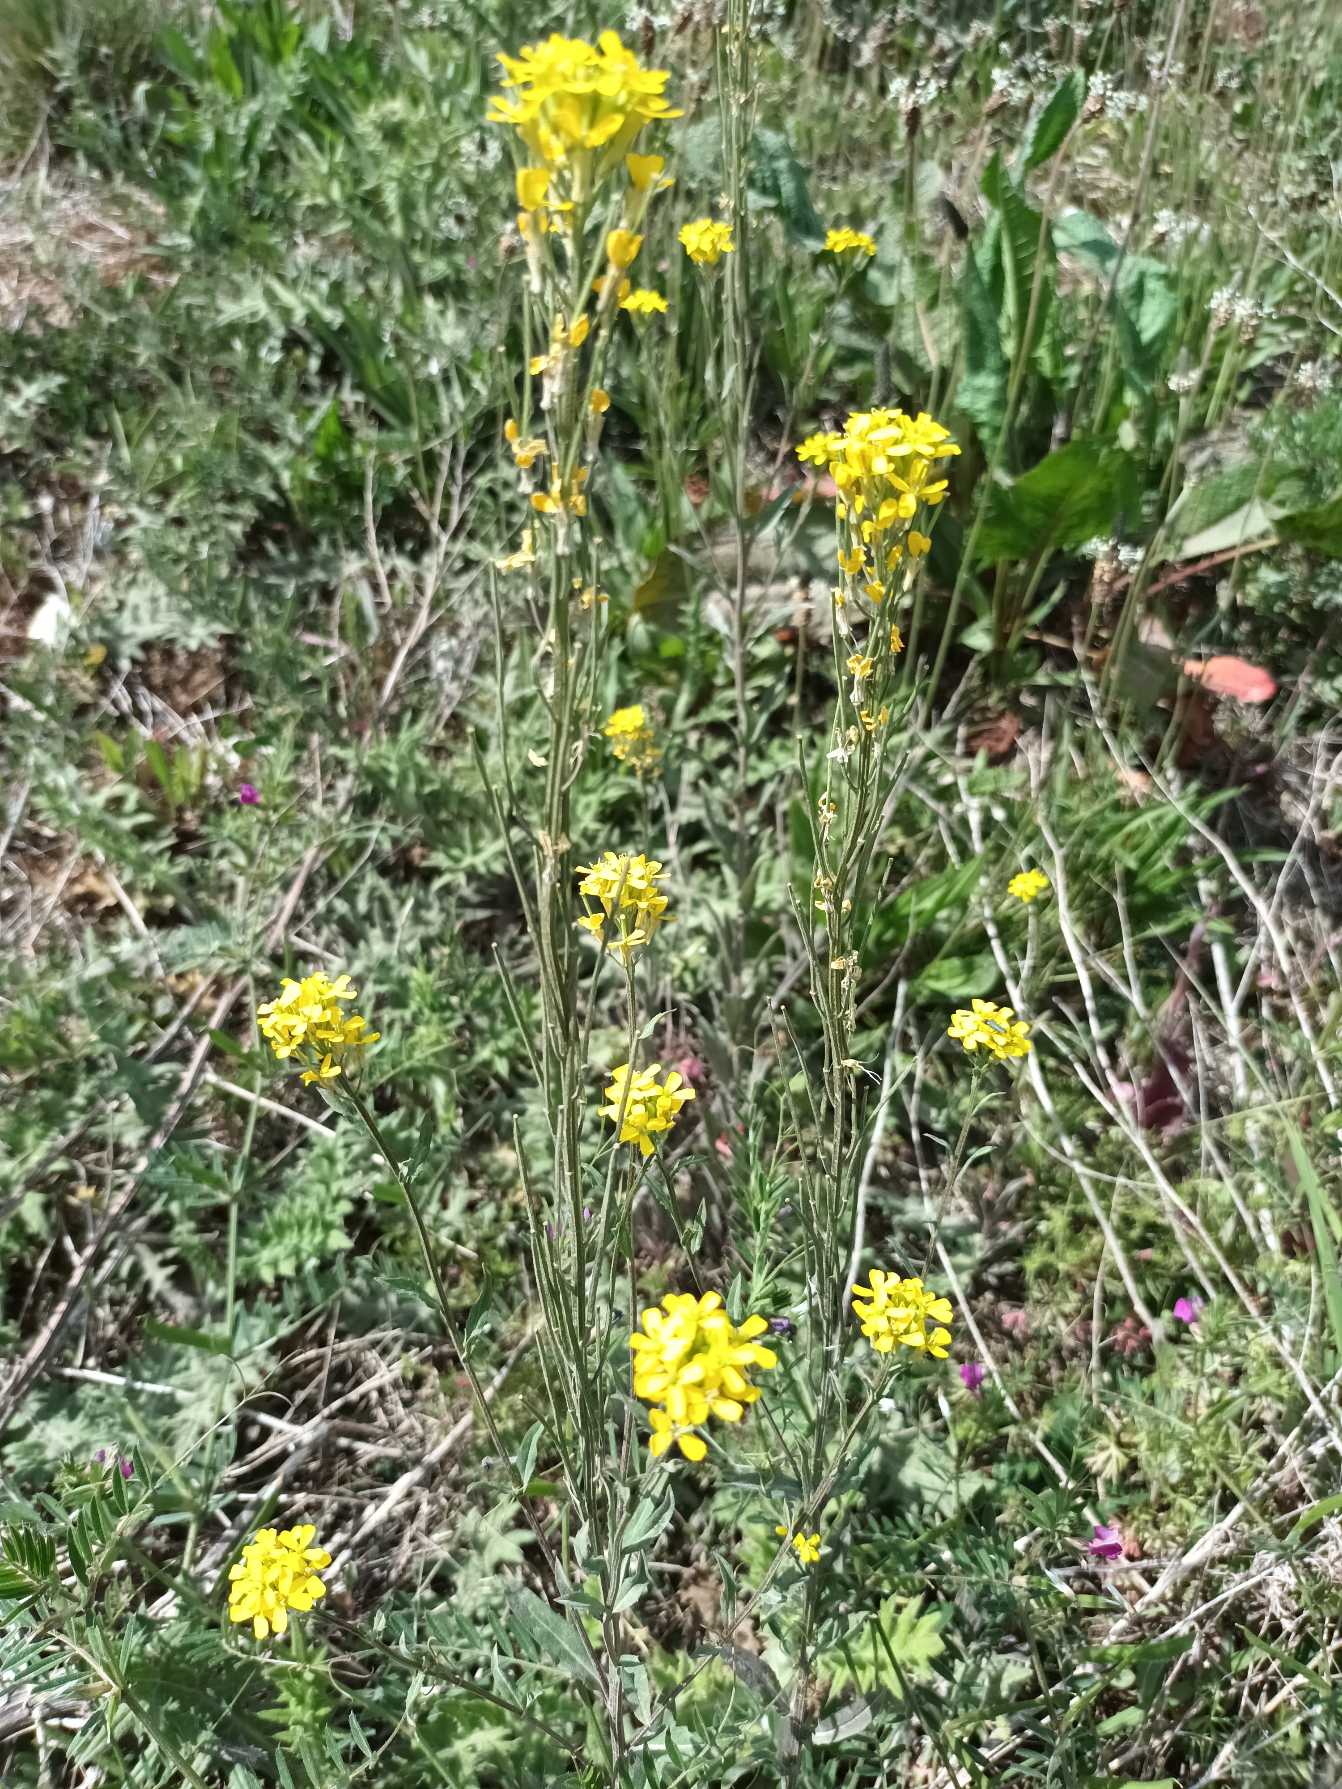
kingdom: Plantae
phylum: Tracheophyta
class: Magnoliopsida
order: Brassicales
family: Brassicaceae
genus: Erysimum
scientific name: Erysimum strictum
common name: Rank hjørneklap
